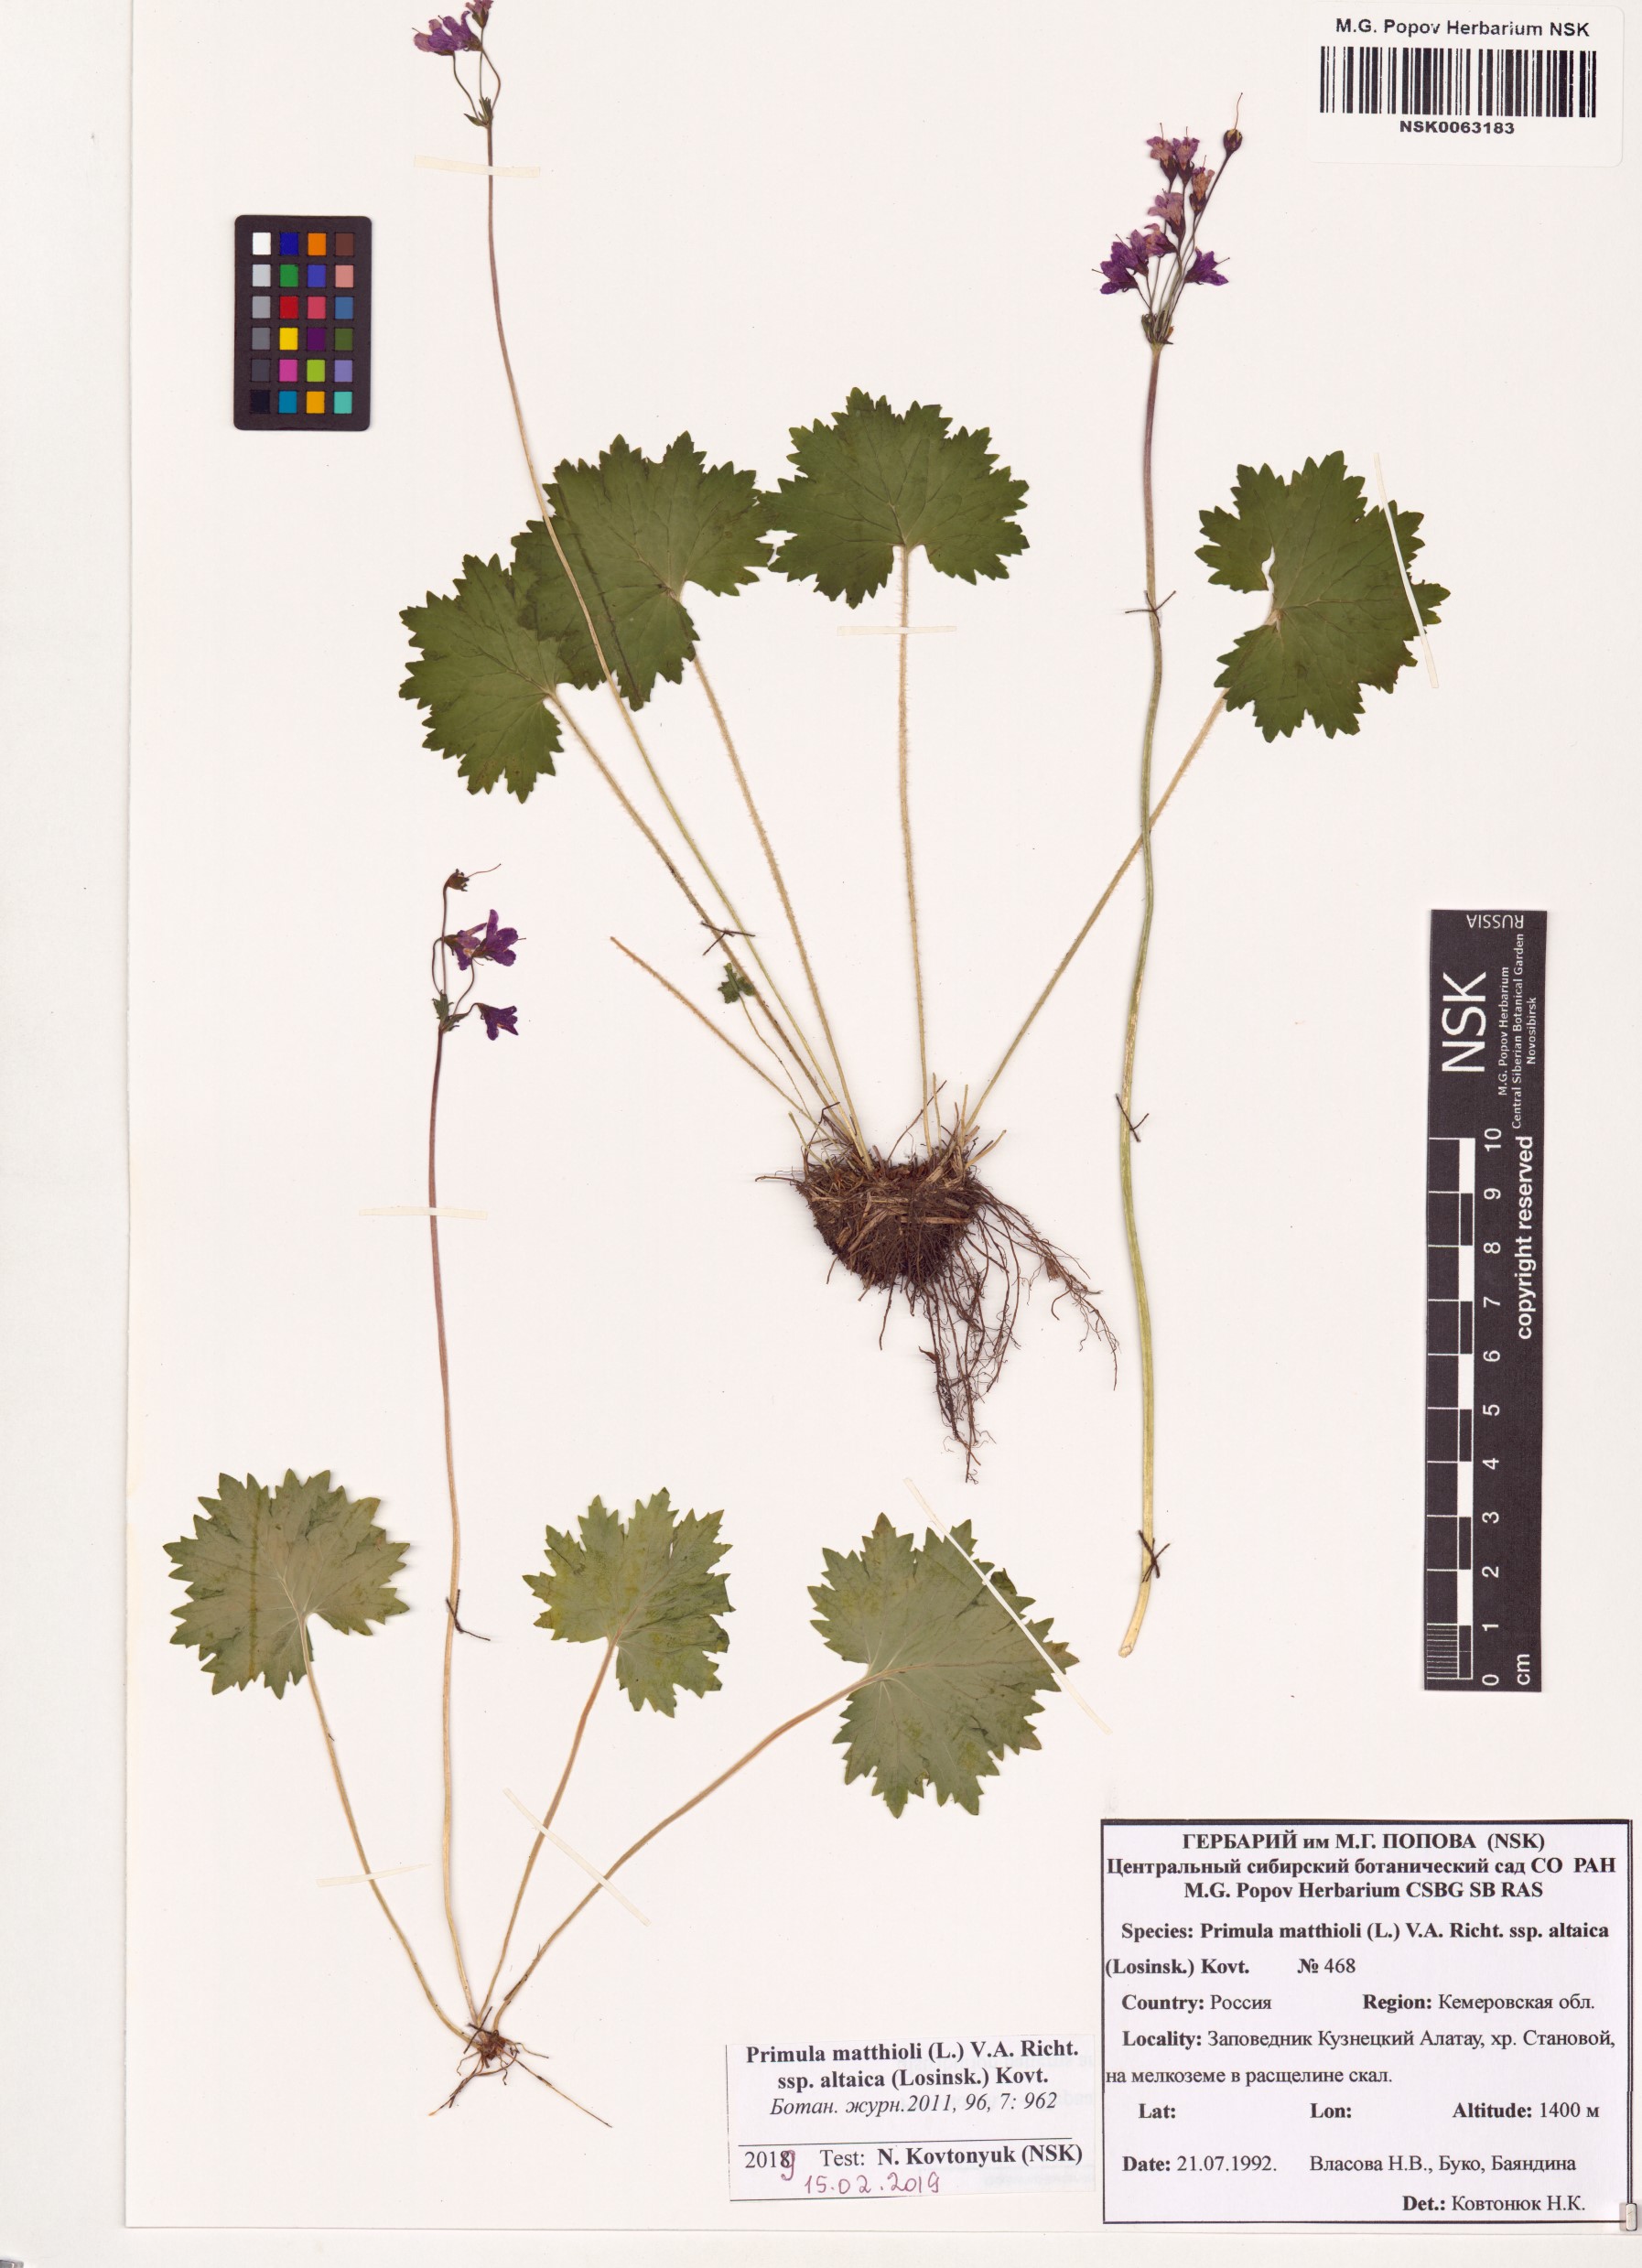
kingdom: Plantae
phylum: Tracheophyta
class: Magnoliopsida
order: Ericales
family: Primulaceae
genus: Primula
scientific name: Primula matthioli
